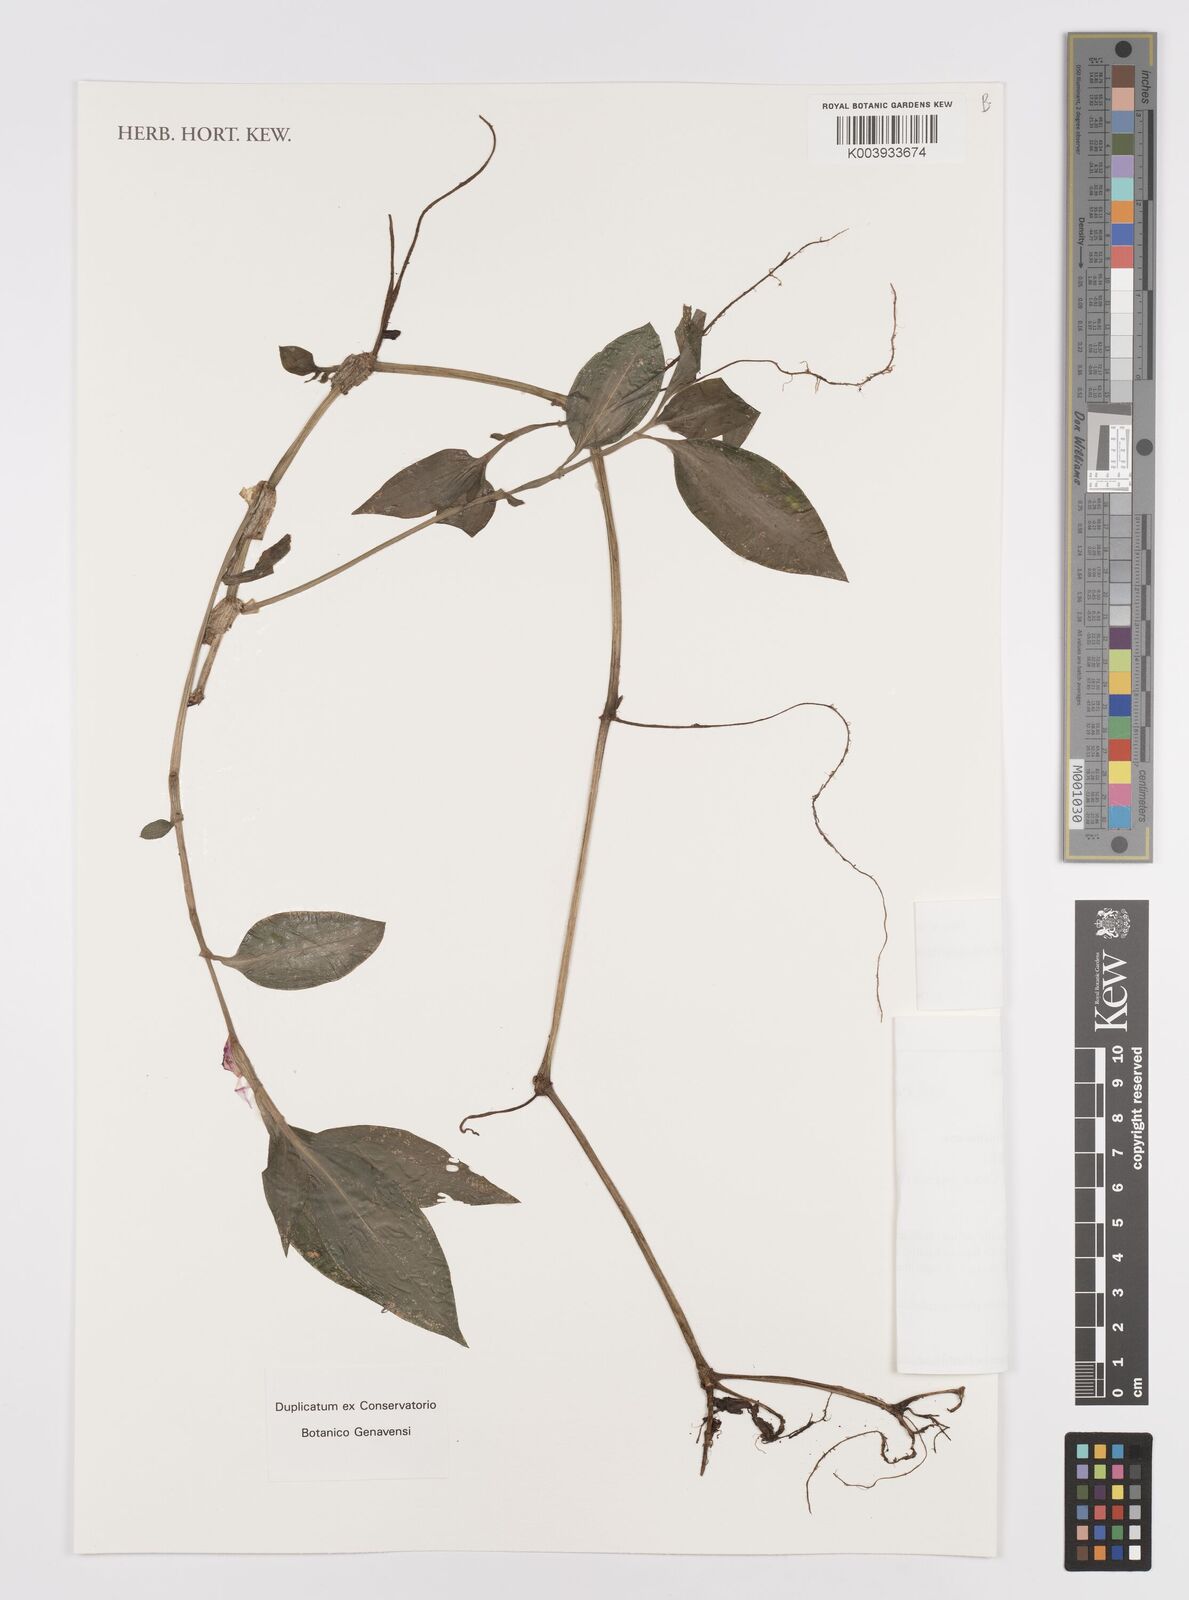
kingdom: Plantae
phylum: Tracheophyta
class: Liliopsida
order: Commelinales
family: Commelinaceae
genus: Coleotrype
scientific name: Coleotrype goudotii
